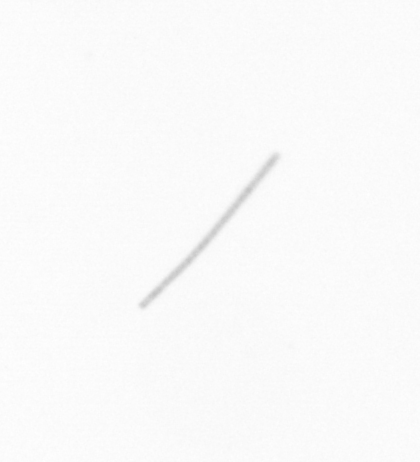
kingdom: Chromista
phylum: Ochrophyta
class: Bacillariophyceae
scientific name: Bacillariophyceae
